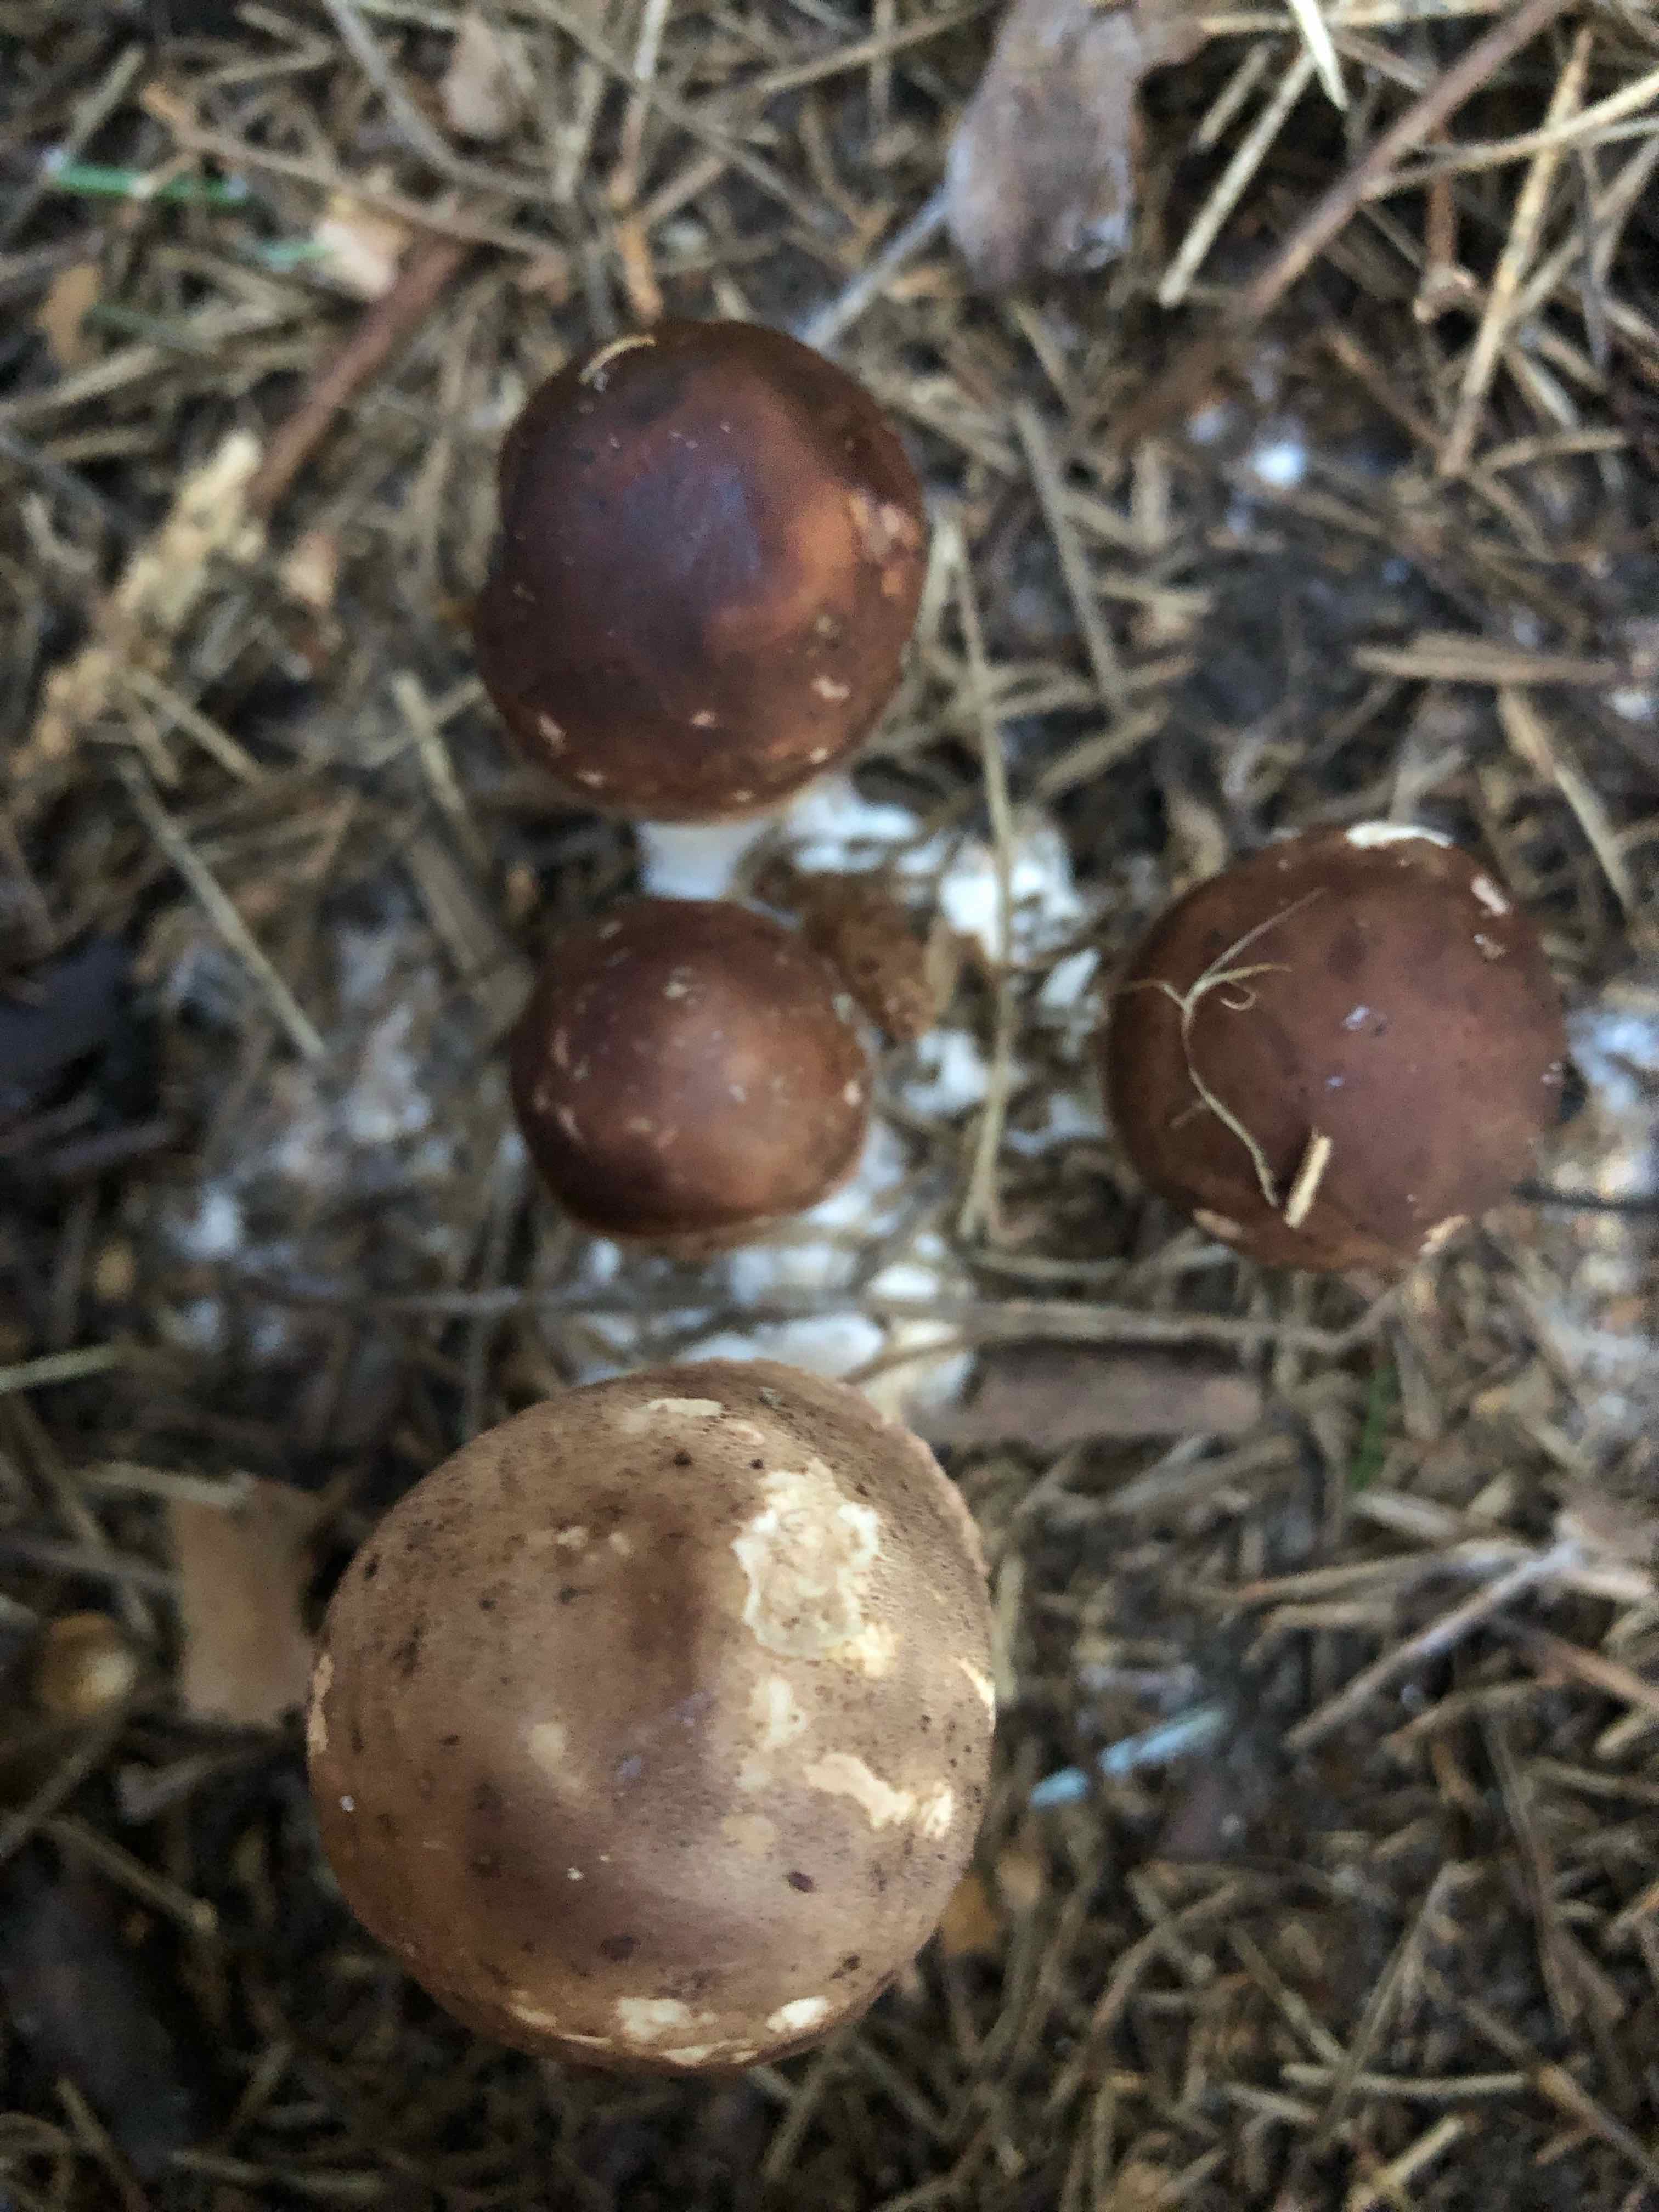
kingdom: Fungi
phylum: Basidiomycota
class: Agaricomycetes
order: Agaricales
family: Agaricaceae
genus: Chlorophyllum
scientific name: Chlorophyllum
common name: rabarberhat
